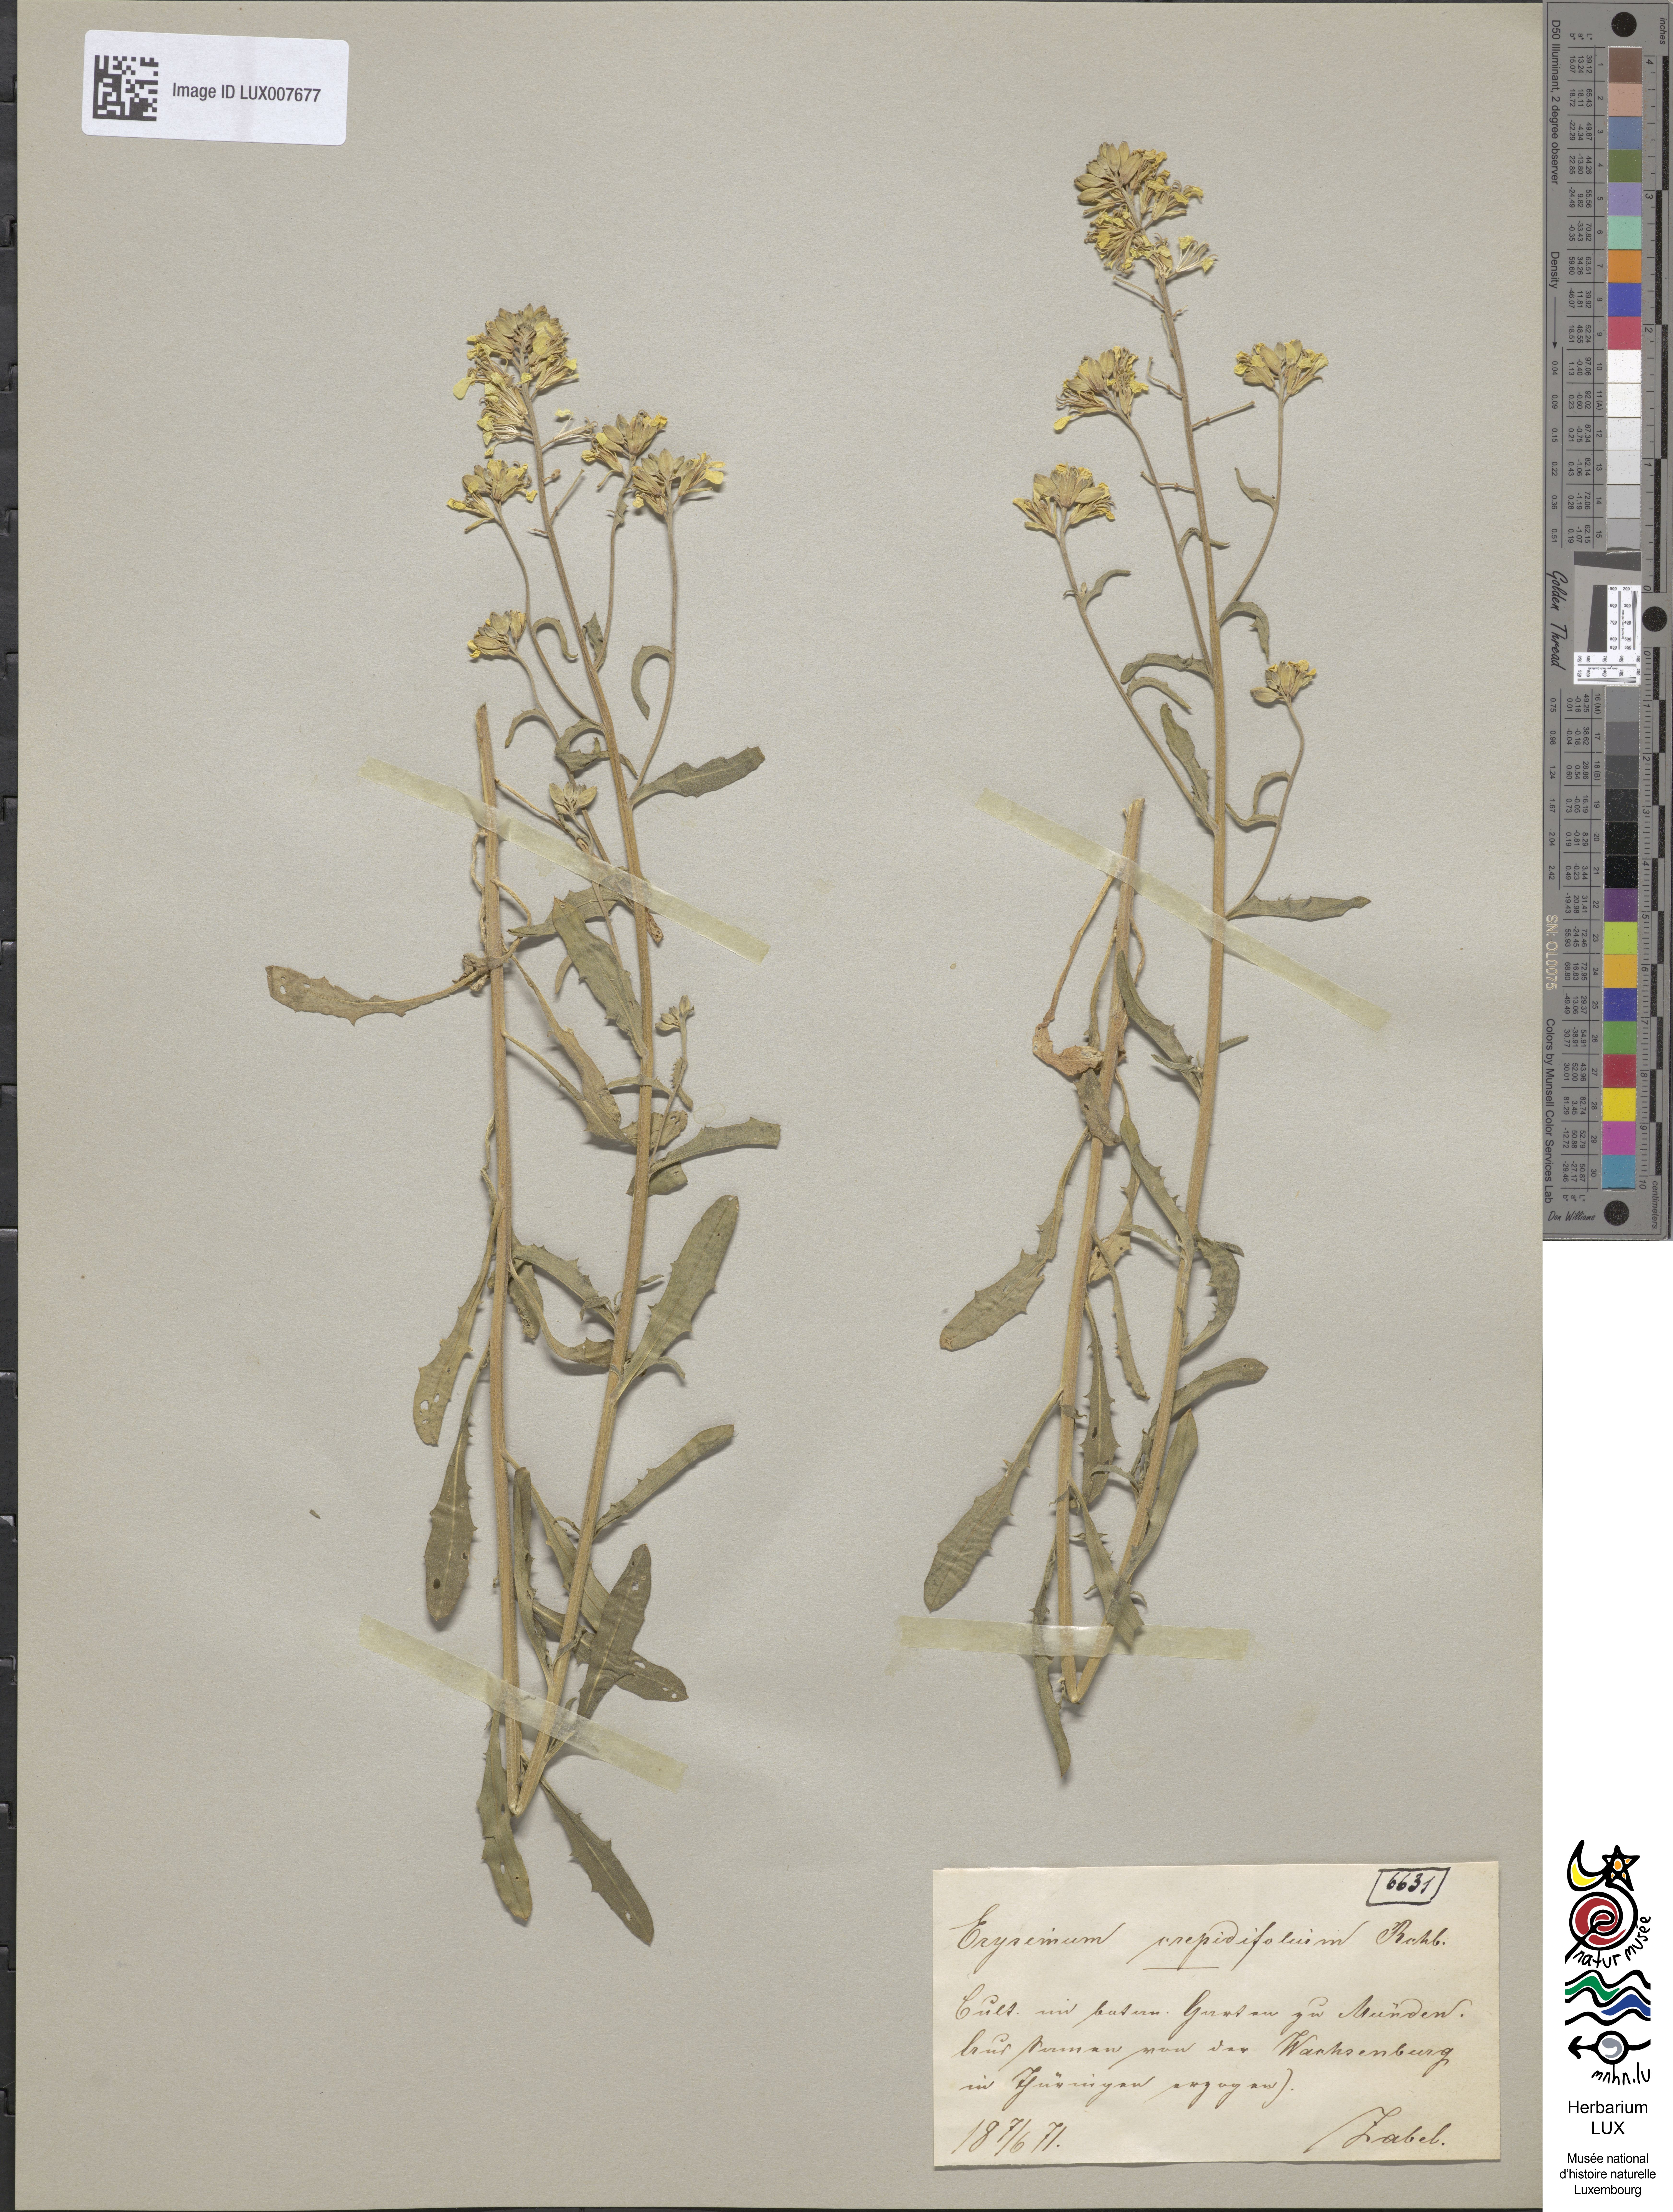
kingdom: Plantae
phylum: Tracheophyta
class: Magnoliopsida
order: Brassicales
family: Brassicaceae
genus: Erysimum
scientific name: Erysimum crepidifolium
